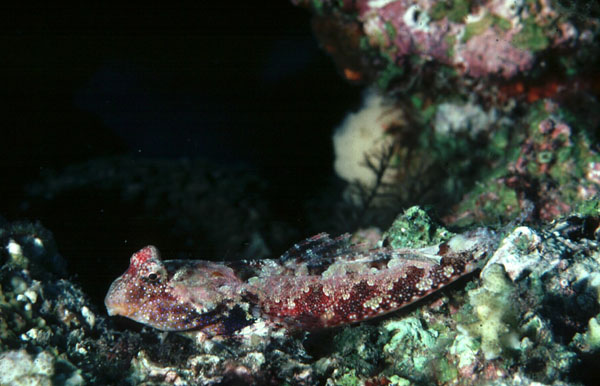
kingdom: Animalia
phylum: Chordata
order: Perciformes
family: Callionymidae
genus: Neosynchiropus
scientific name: Neosynchiropus ocellatus
